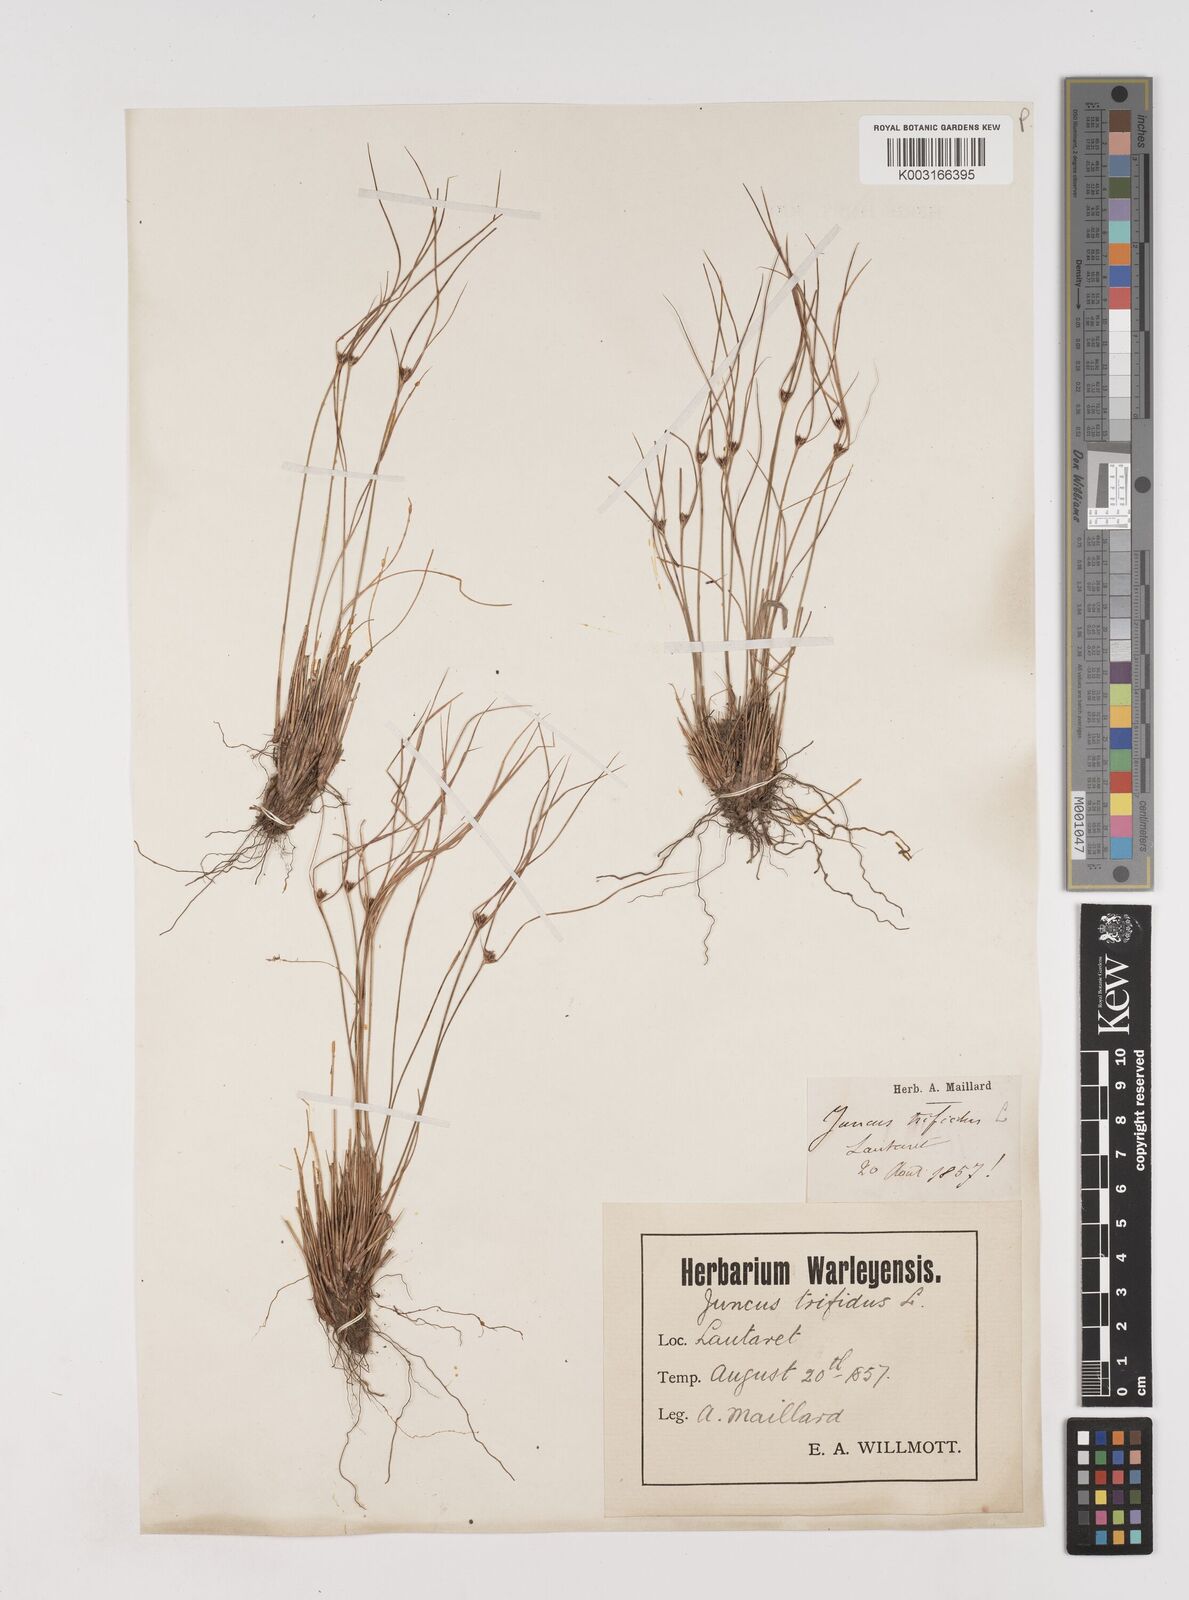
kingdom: Plantae
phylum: Tracheophyta
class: Liliopsida
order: Poales
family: Juncaceae
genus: Oreojuncus
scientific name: Oreojuncus trifidus
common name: Highland rush
